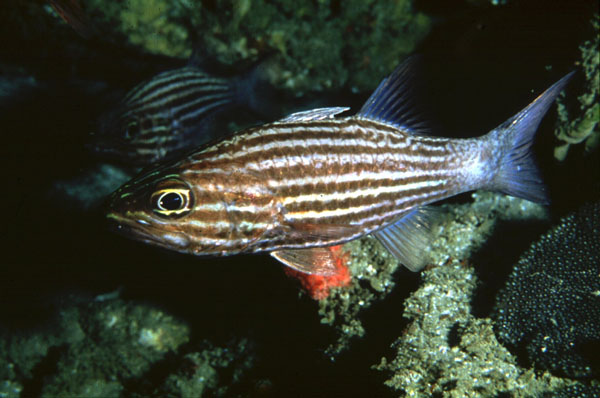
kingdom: Animalia
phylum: Chordata
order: Perciformes
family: Apogonidae
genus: Cheilodipterus
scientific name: Cheilodipterus macrodon
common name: Eight-lined cardinalfish
